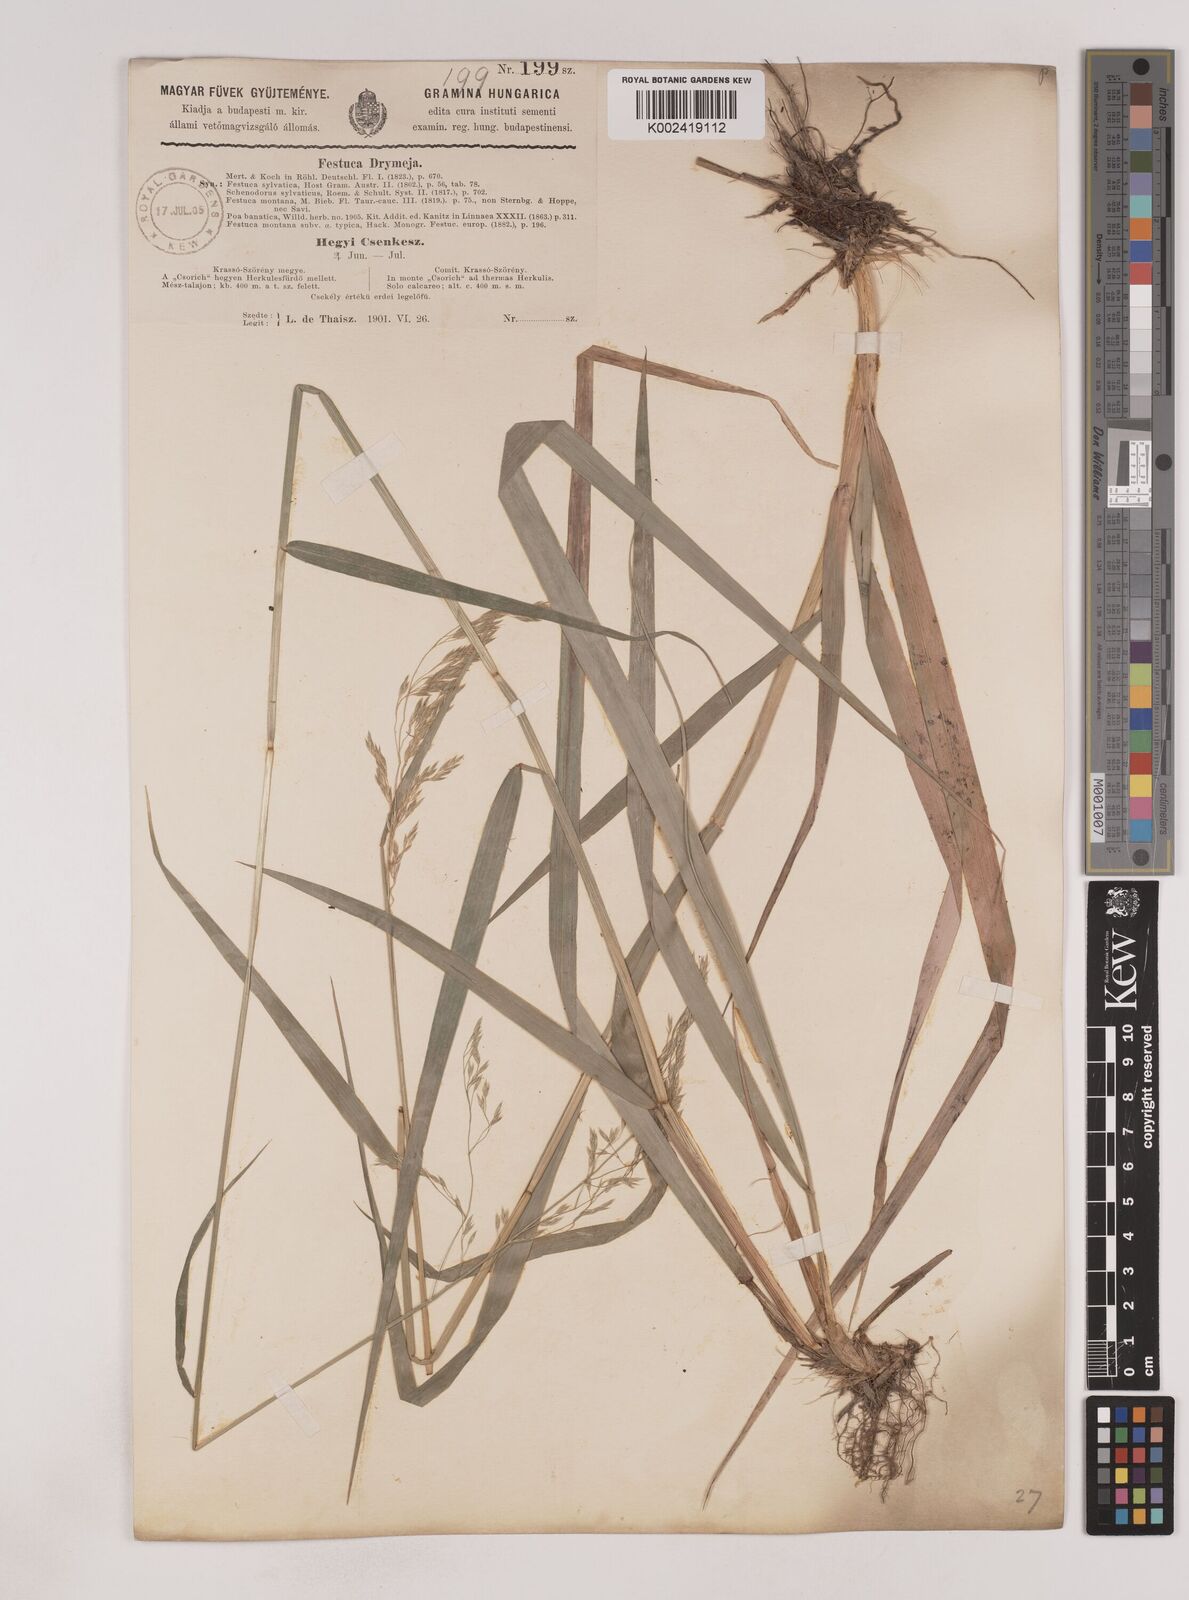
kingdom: Plantae
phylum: Tracheophyta
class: Liliopsida
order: Poales
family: Poaceae
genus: Festuca
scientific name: Festuca drymeja
